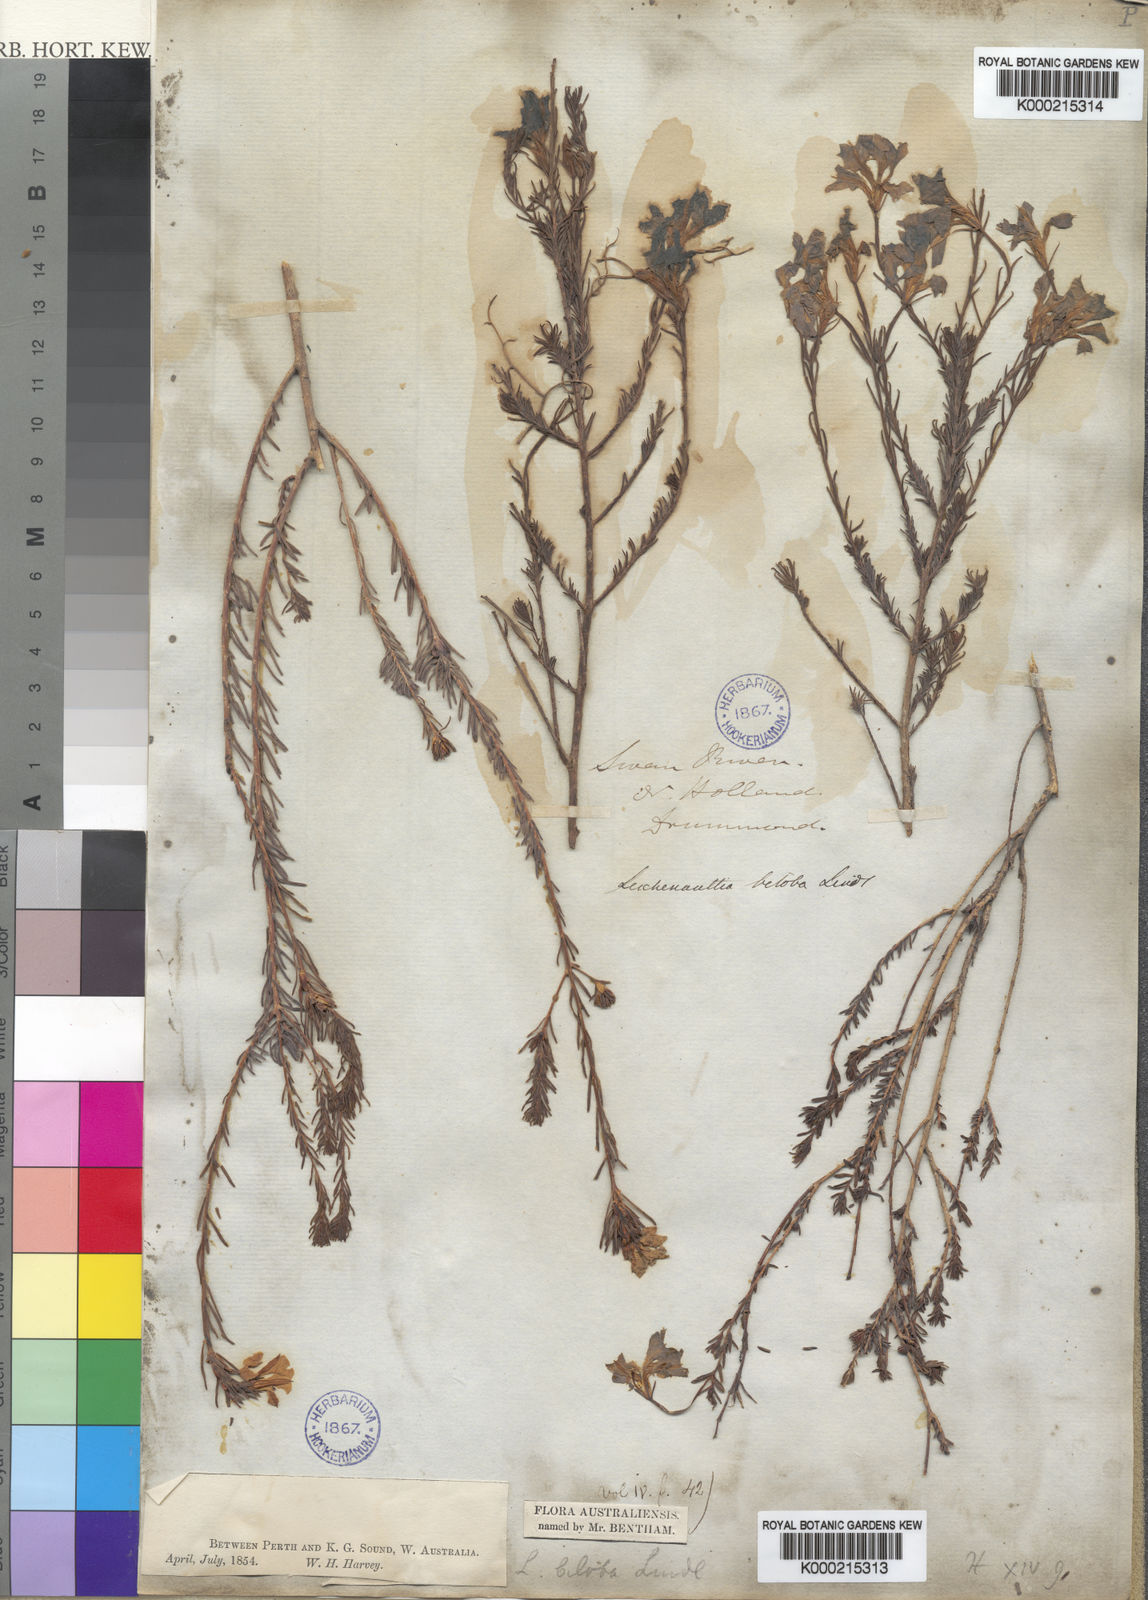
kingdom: Plantae
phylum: Tracheophyta
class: Magnoliopsida
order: Asterales
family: Goodeniaceae
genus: Leschenaultia
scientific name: Leschenaultia biloba
